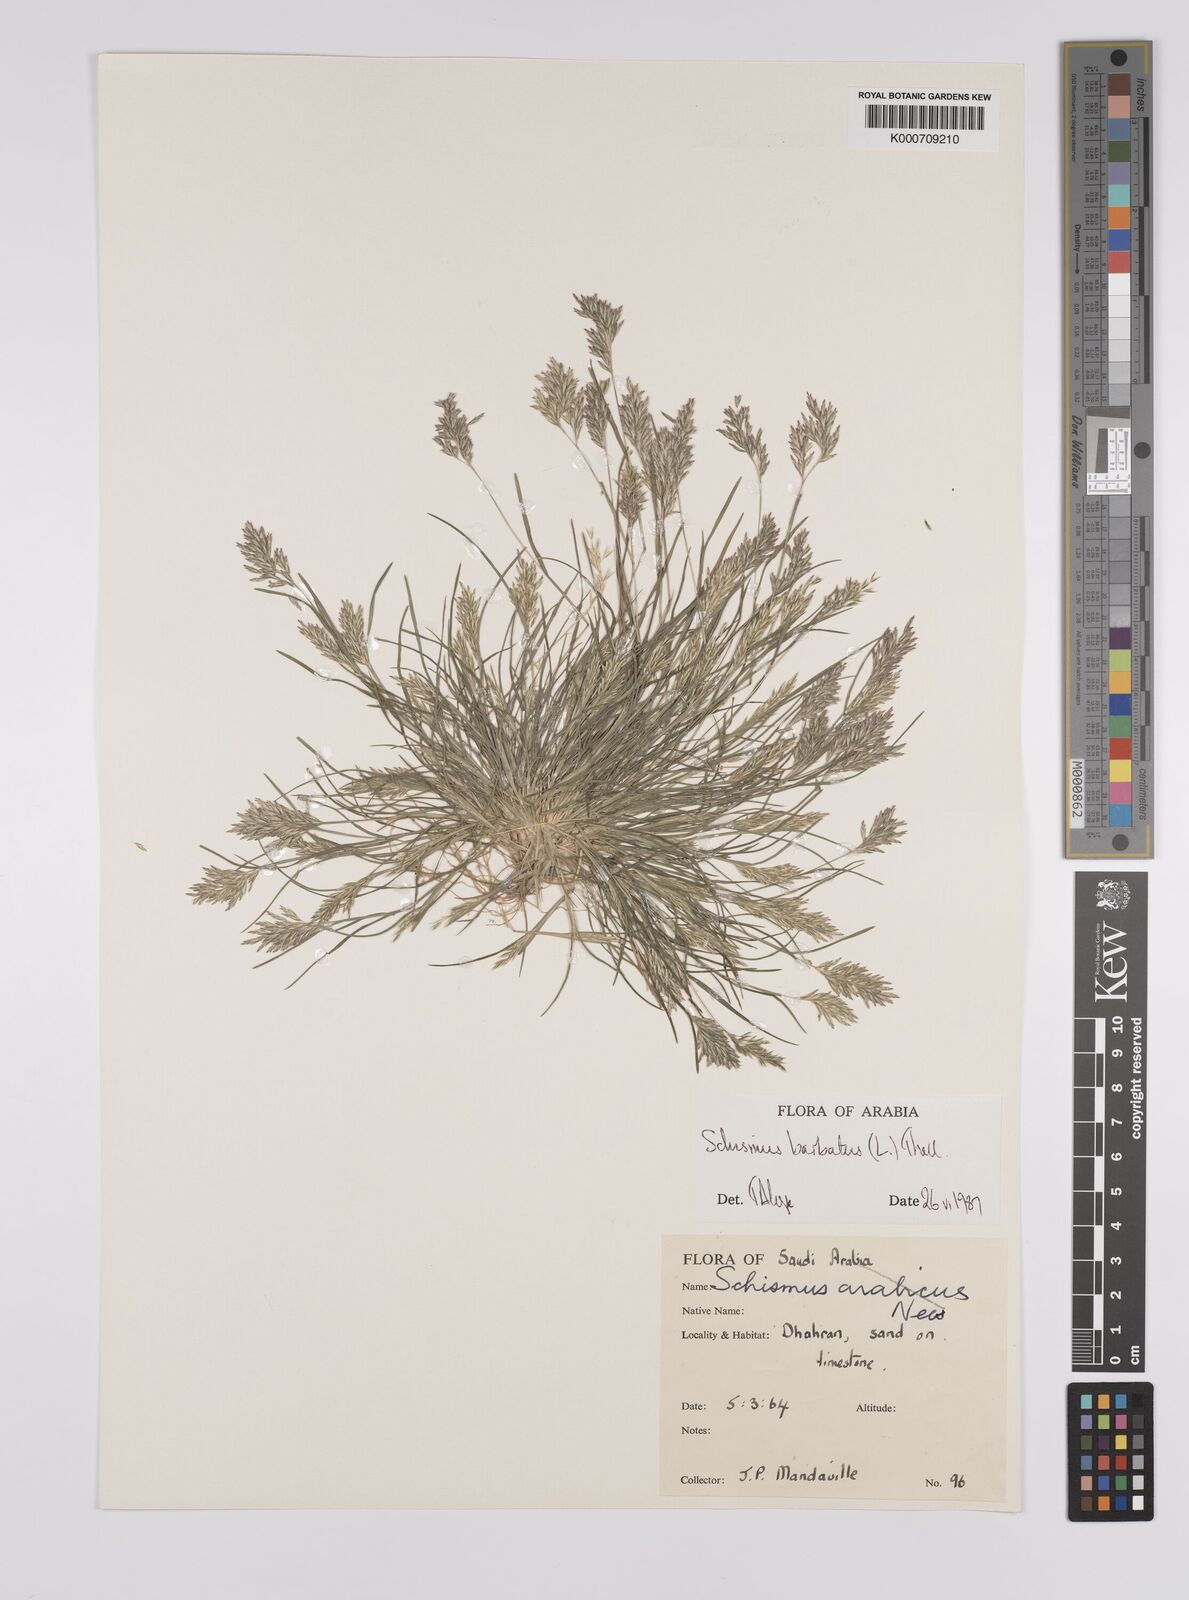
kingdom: Plantae
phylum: Tracheophyta
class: Liliopsida
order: Poales
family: Poaceae
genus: Schismus
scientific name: Schismus barbatus
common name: Kelch-grass
